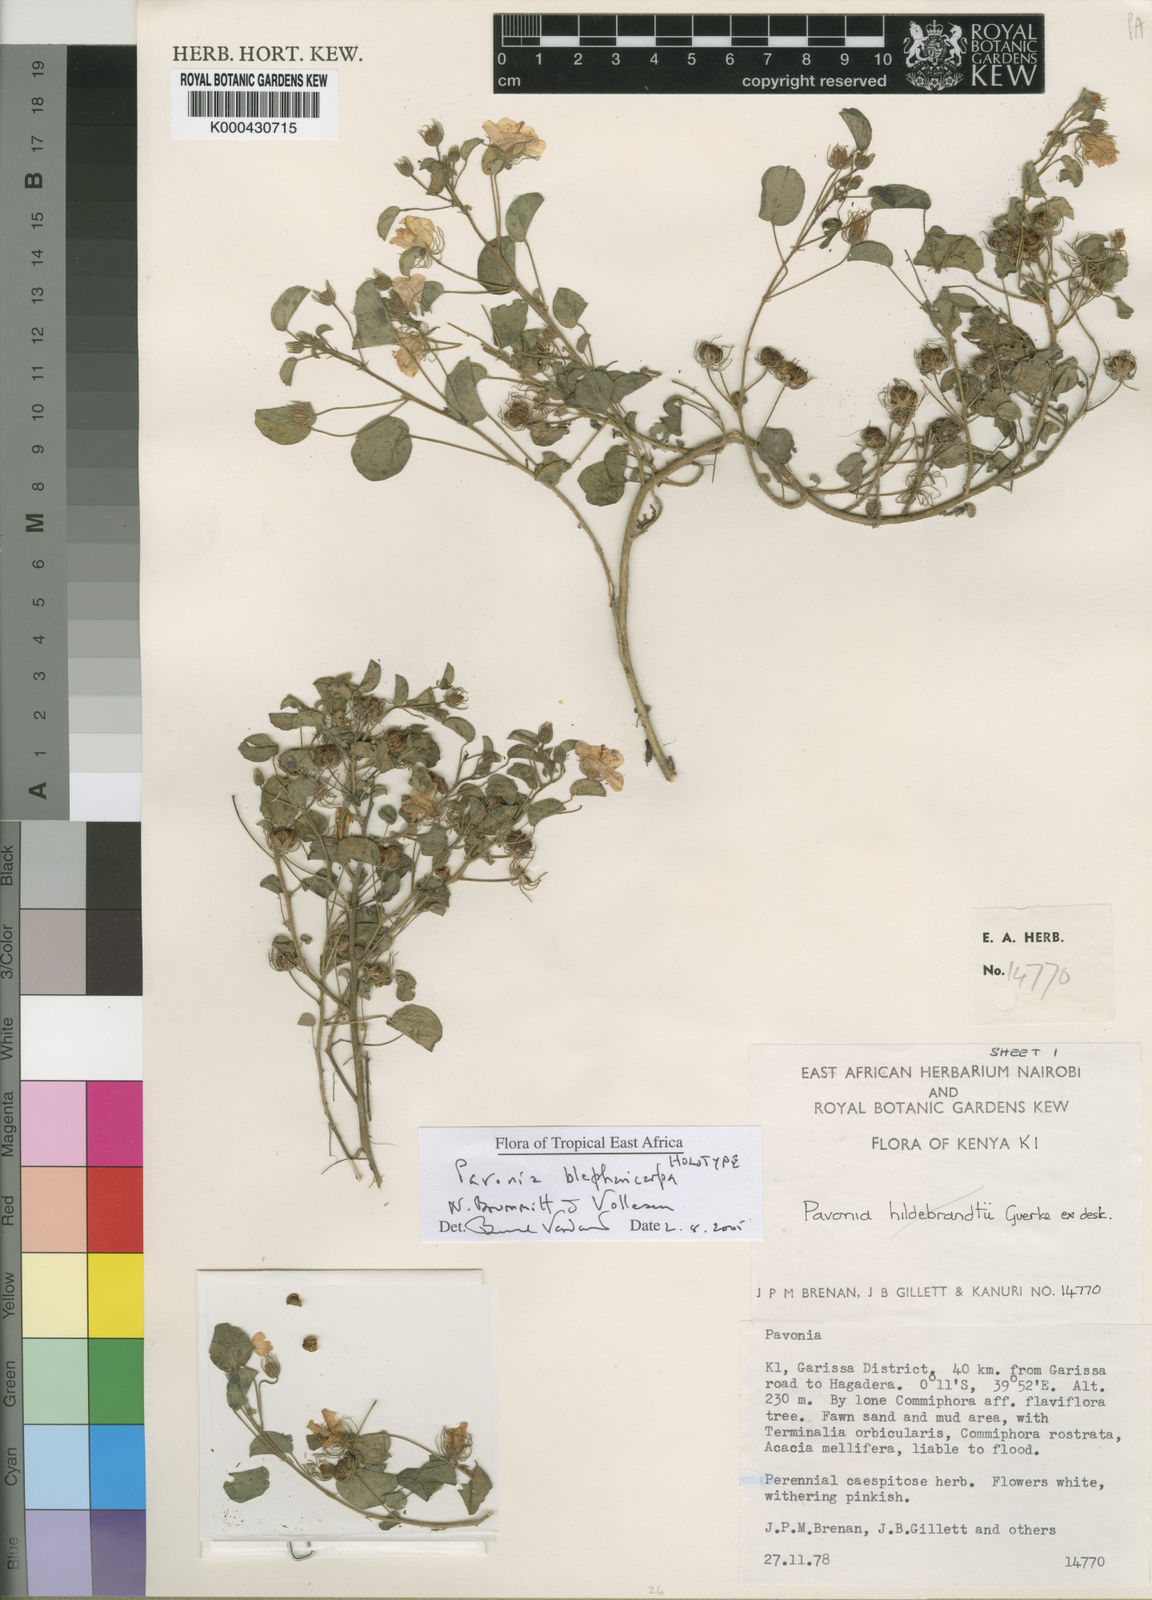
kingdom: Plantae
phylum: Tracheophyta
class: Magnoliopsida
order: Malvales
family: Malvaceae
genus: Pavonia
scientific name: Pavonia blepharicarpa
